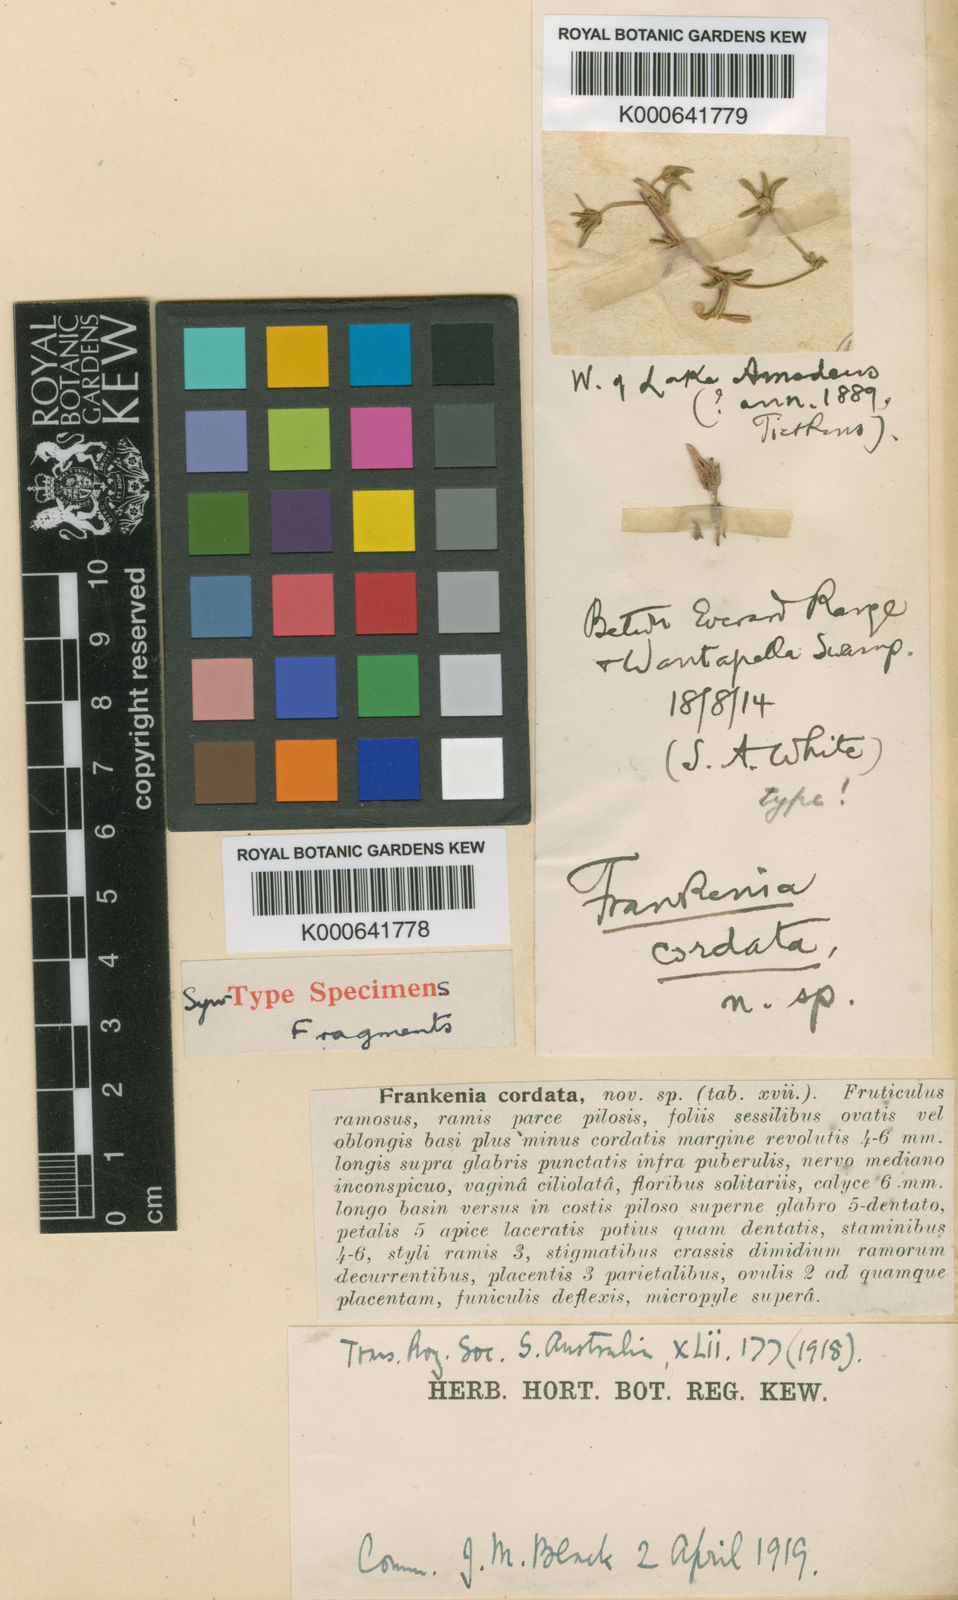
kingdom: Plantae
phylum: Tracheophyta
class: Magnoliopsida
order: Caryophyllales
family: Frankeniaceae
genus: Frankenia
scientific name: Frankenia cordata
